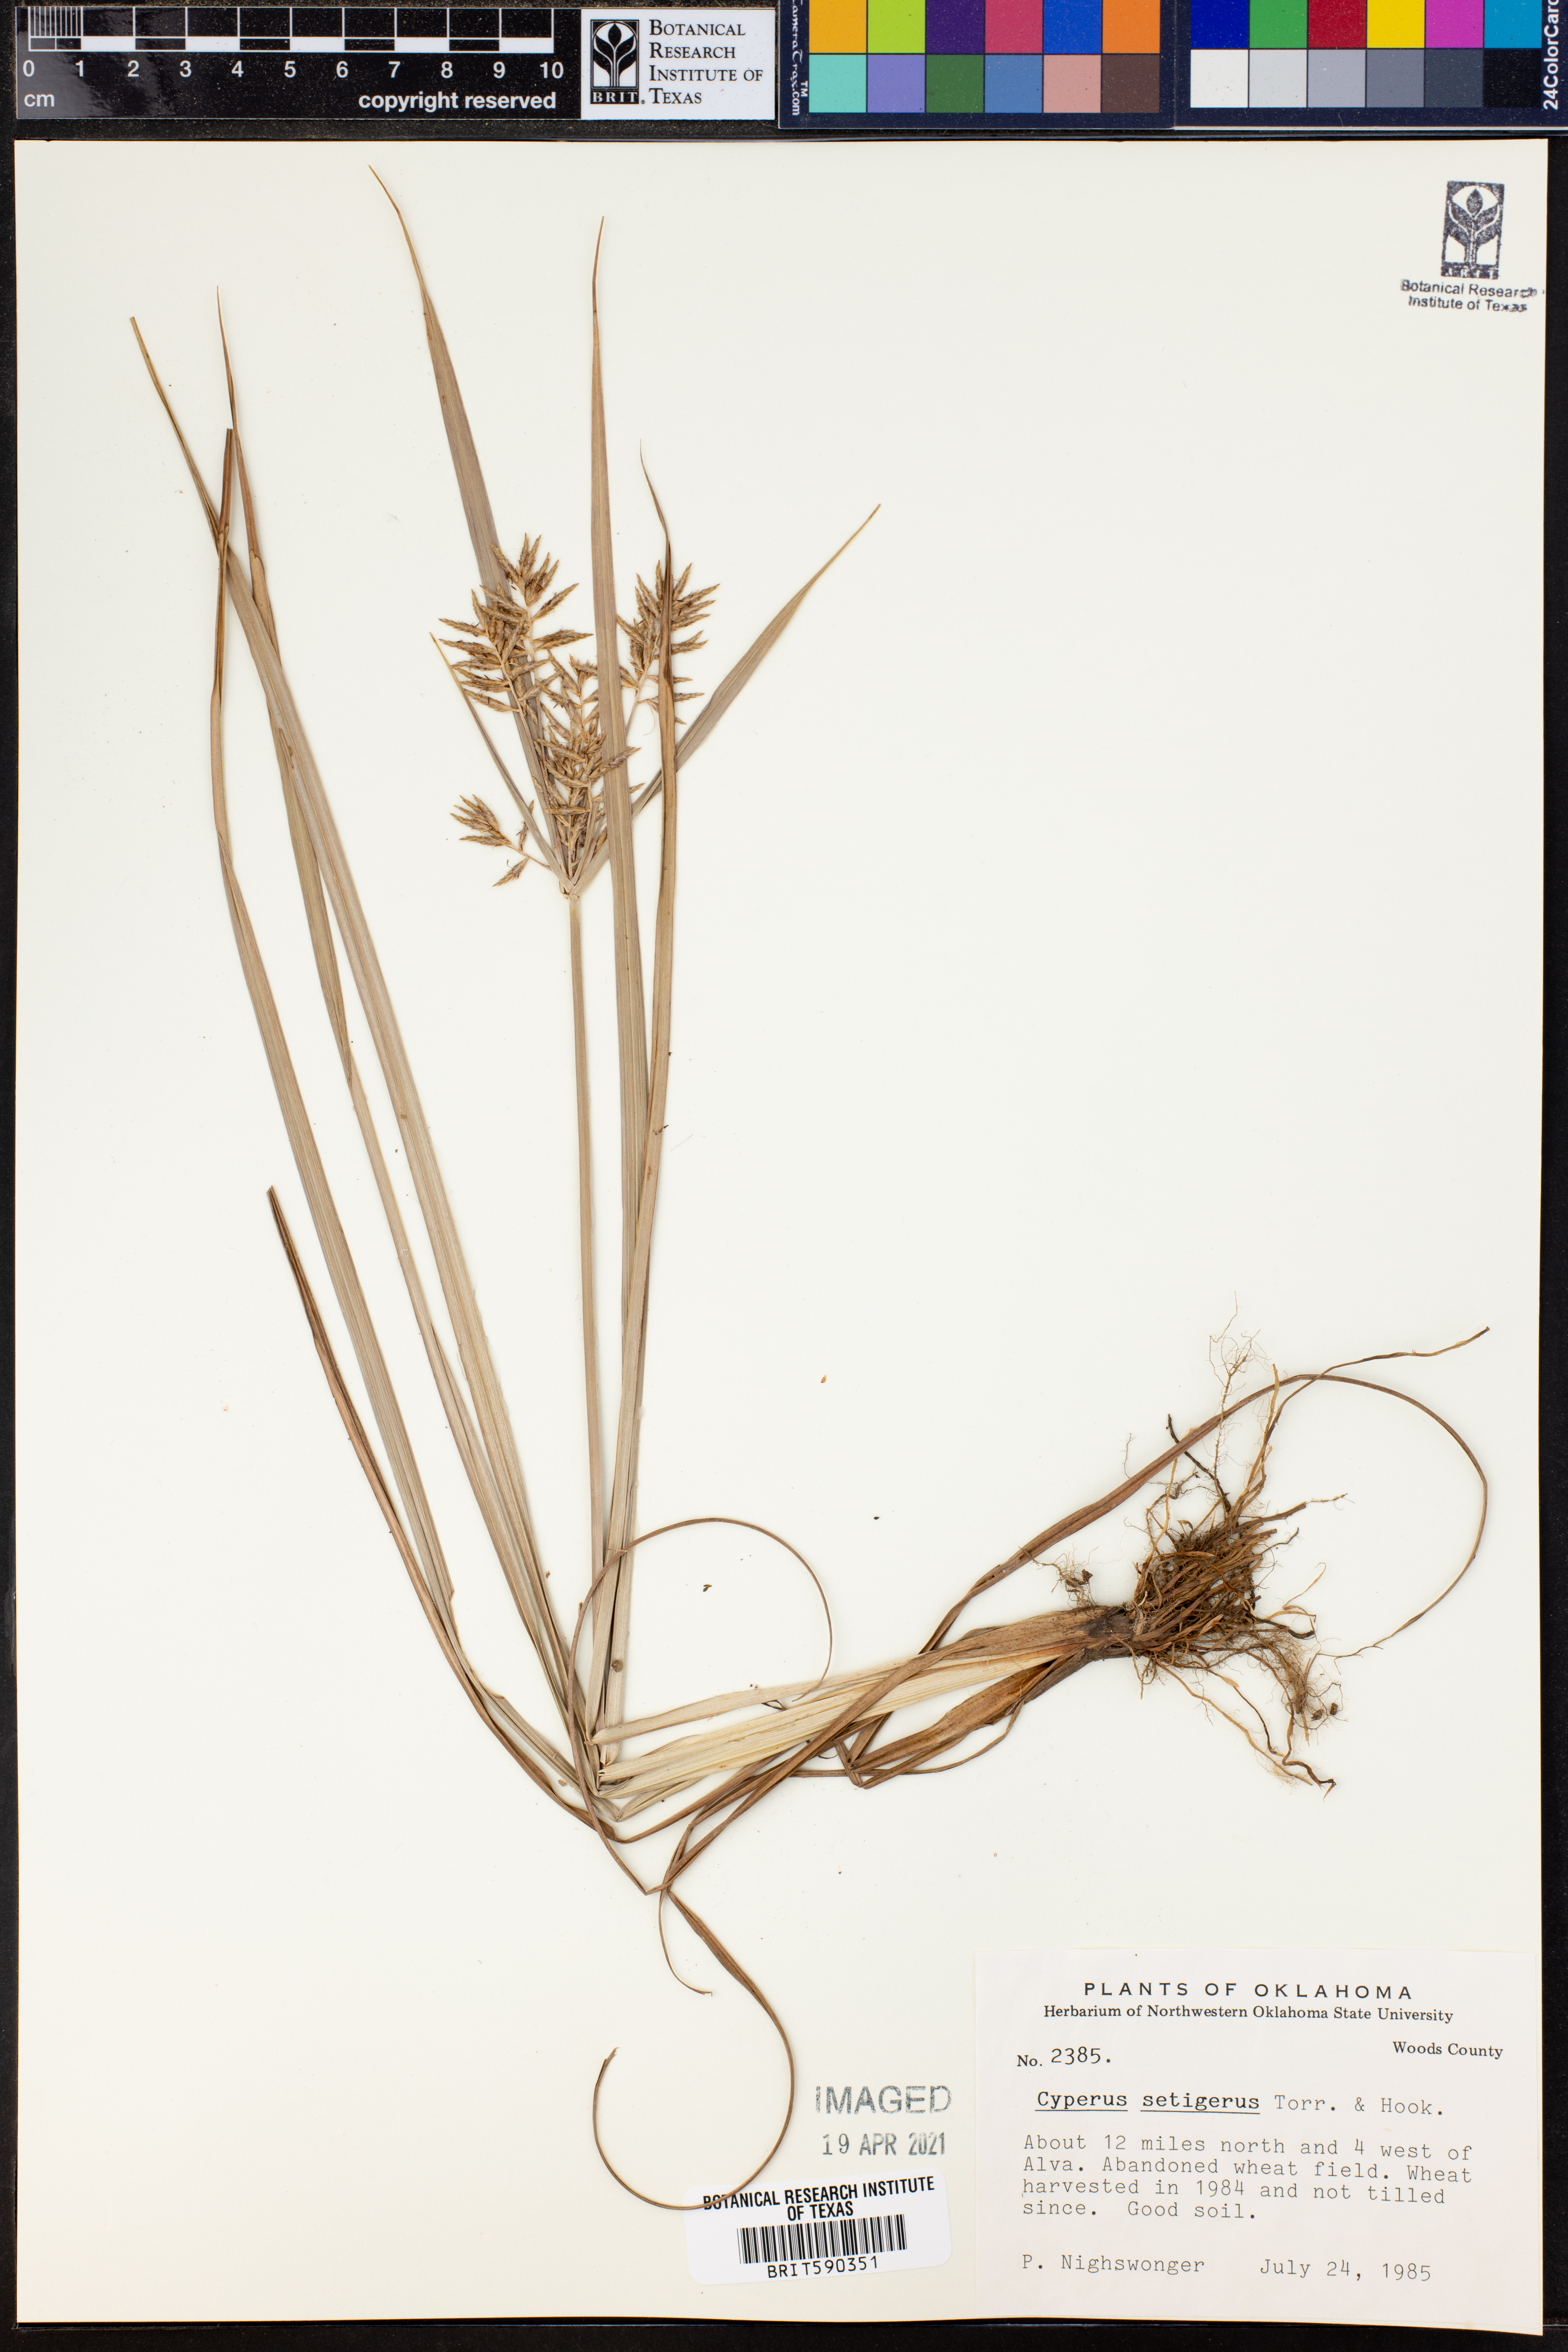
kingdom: Plantae
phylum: Tracheophyta
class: Liliopsida
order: Poales
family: Cyperaceae
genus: Cyperus
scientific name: Cyperus setigerus
